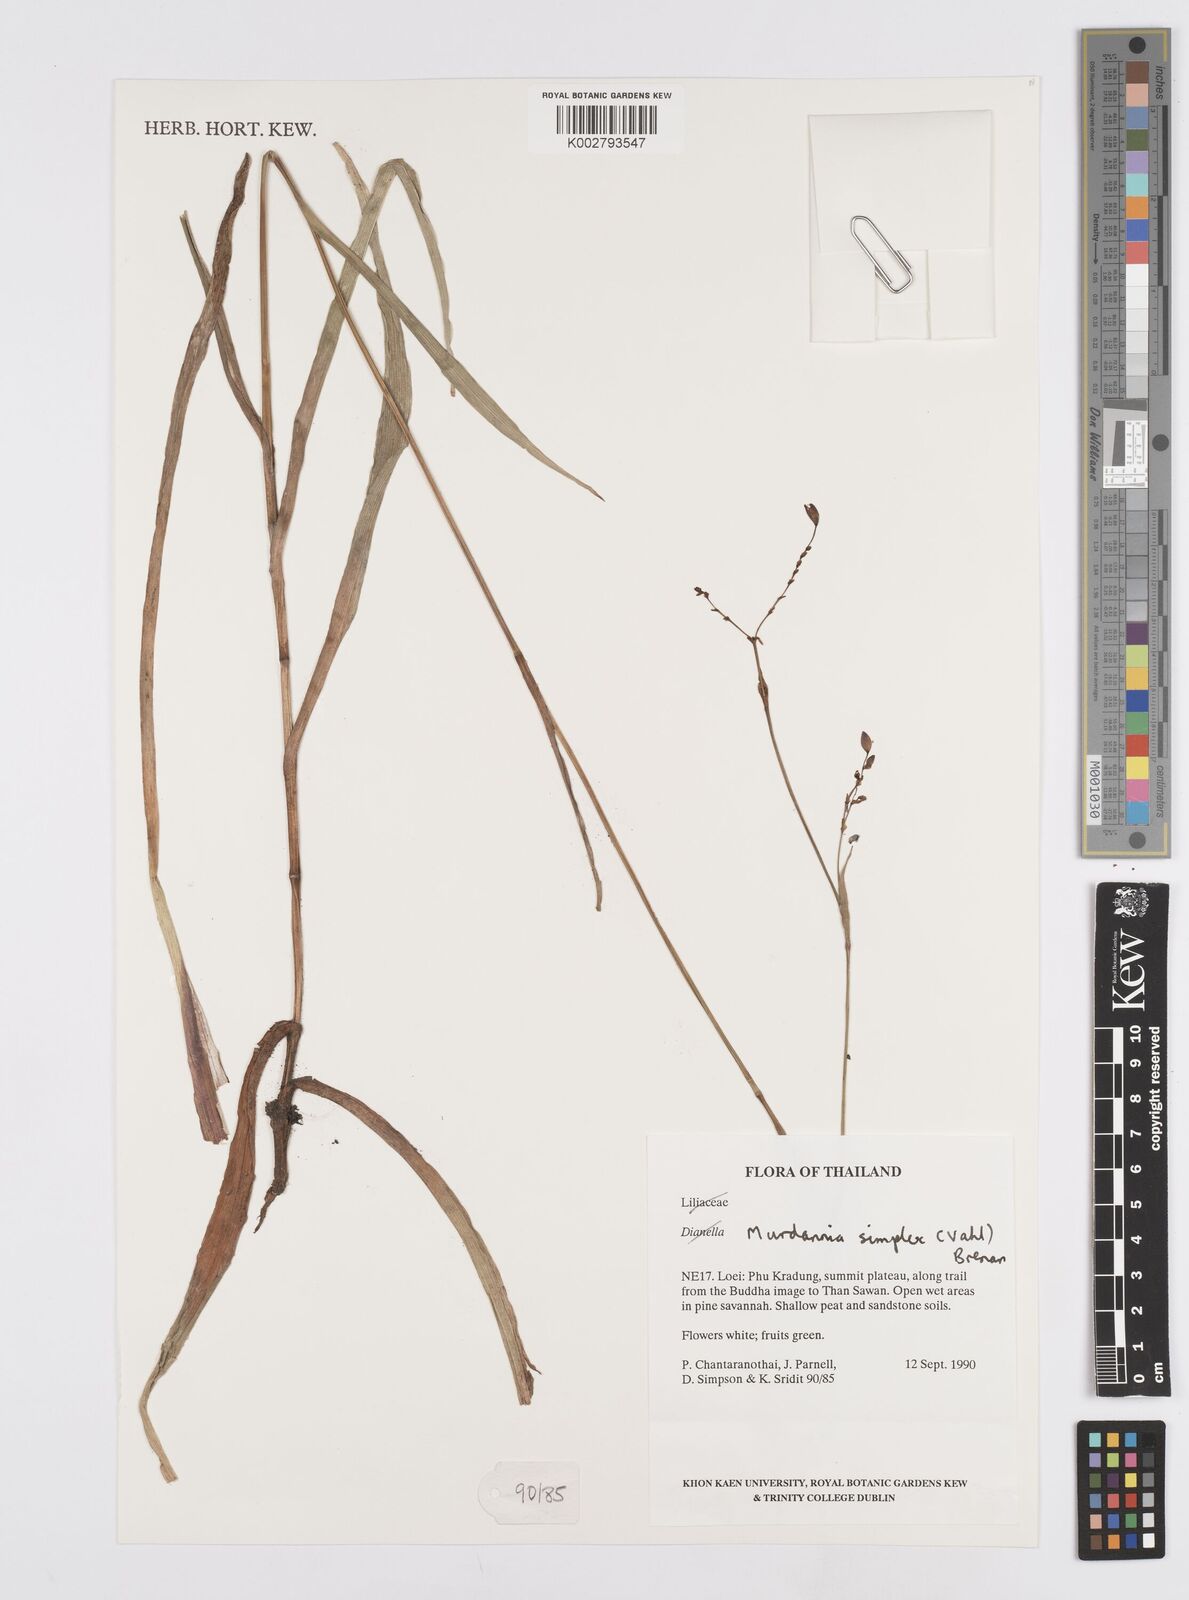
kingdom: Plantae
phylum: Tracheophyta
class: Liliopsida
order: Commelinales
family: Commelinaceae
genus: Murdannia
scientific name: Murdannia simplex
